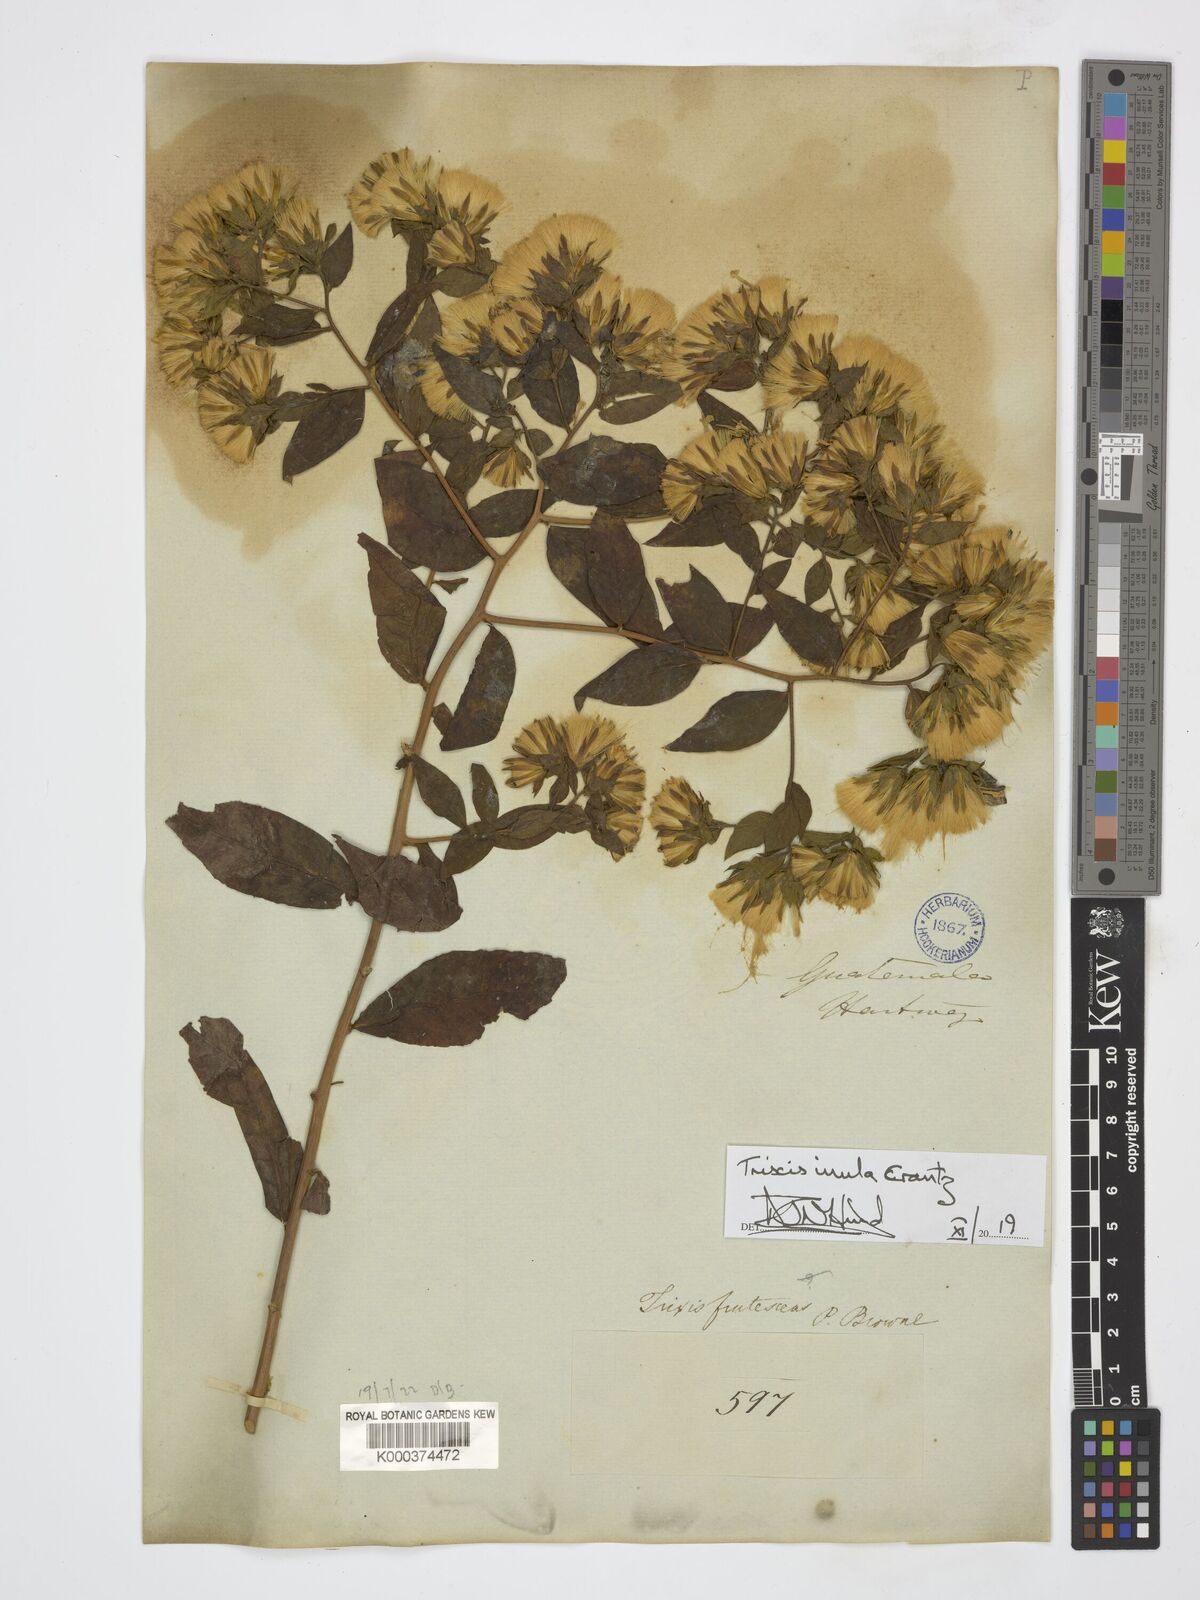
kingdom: Plantae
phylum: Tracheophyta
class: Magnoliopsida
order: Asterales
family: Asteraceae
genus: Trixis
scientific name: Trixis inula
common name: Tropical threefold
